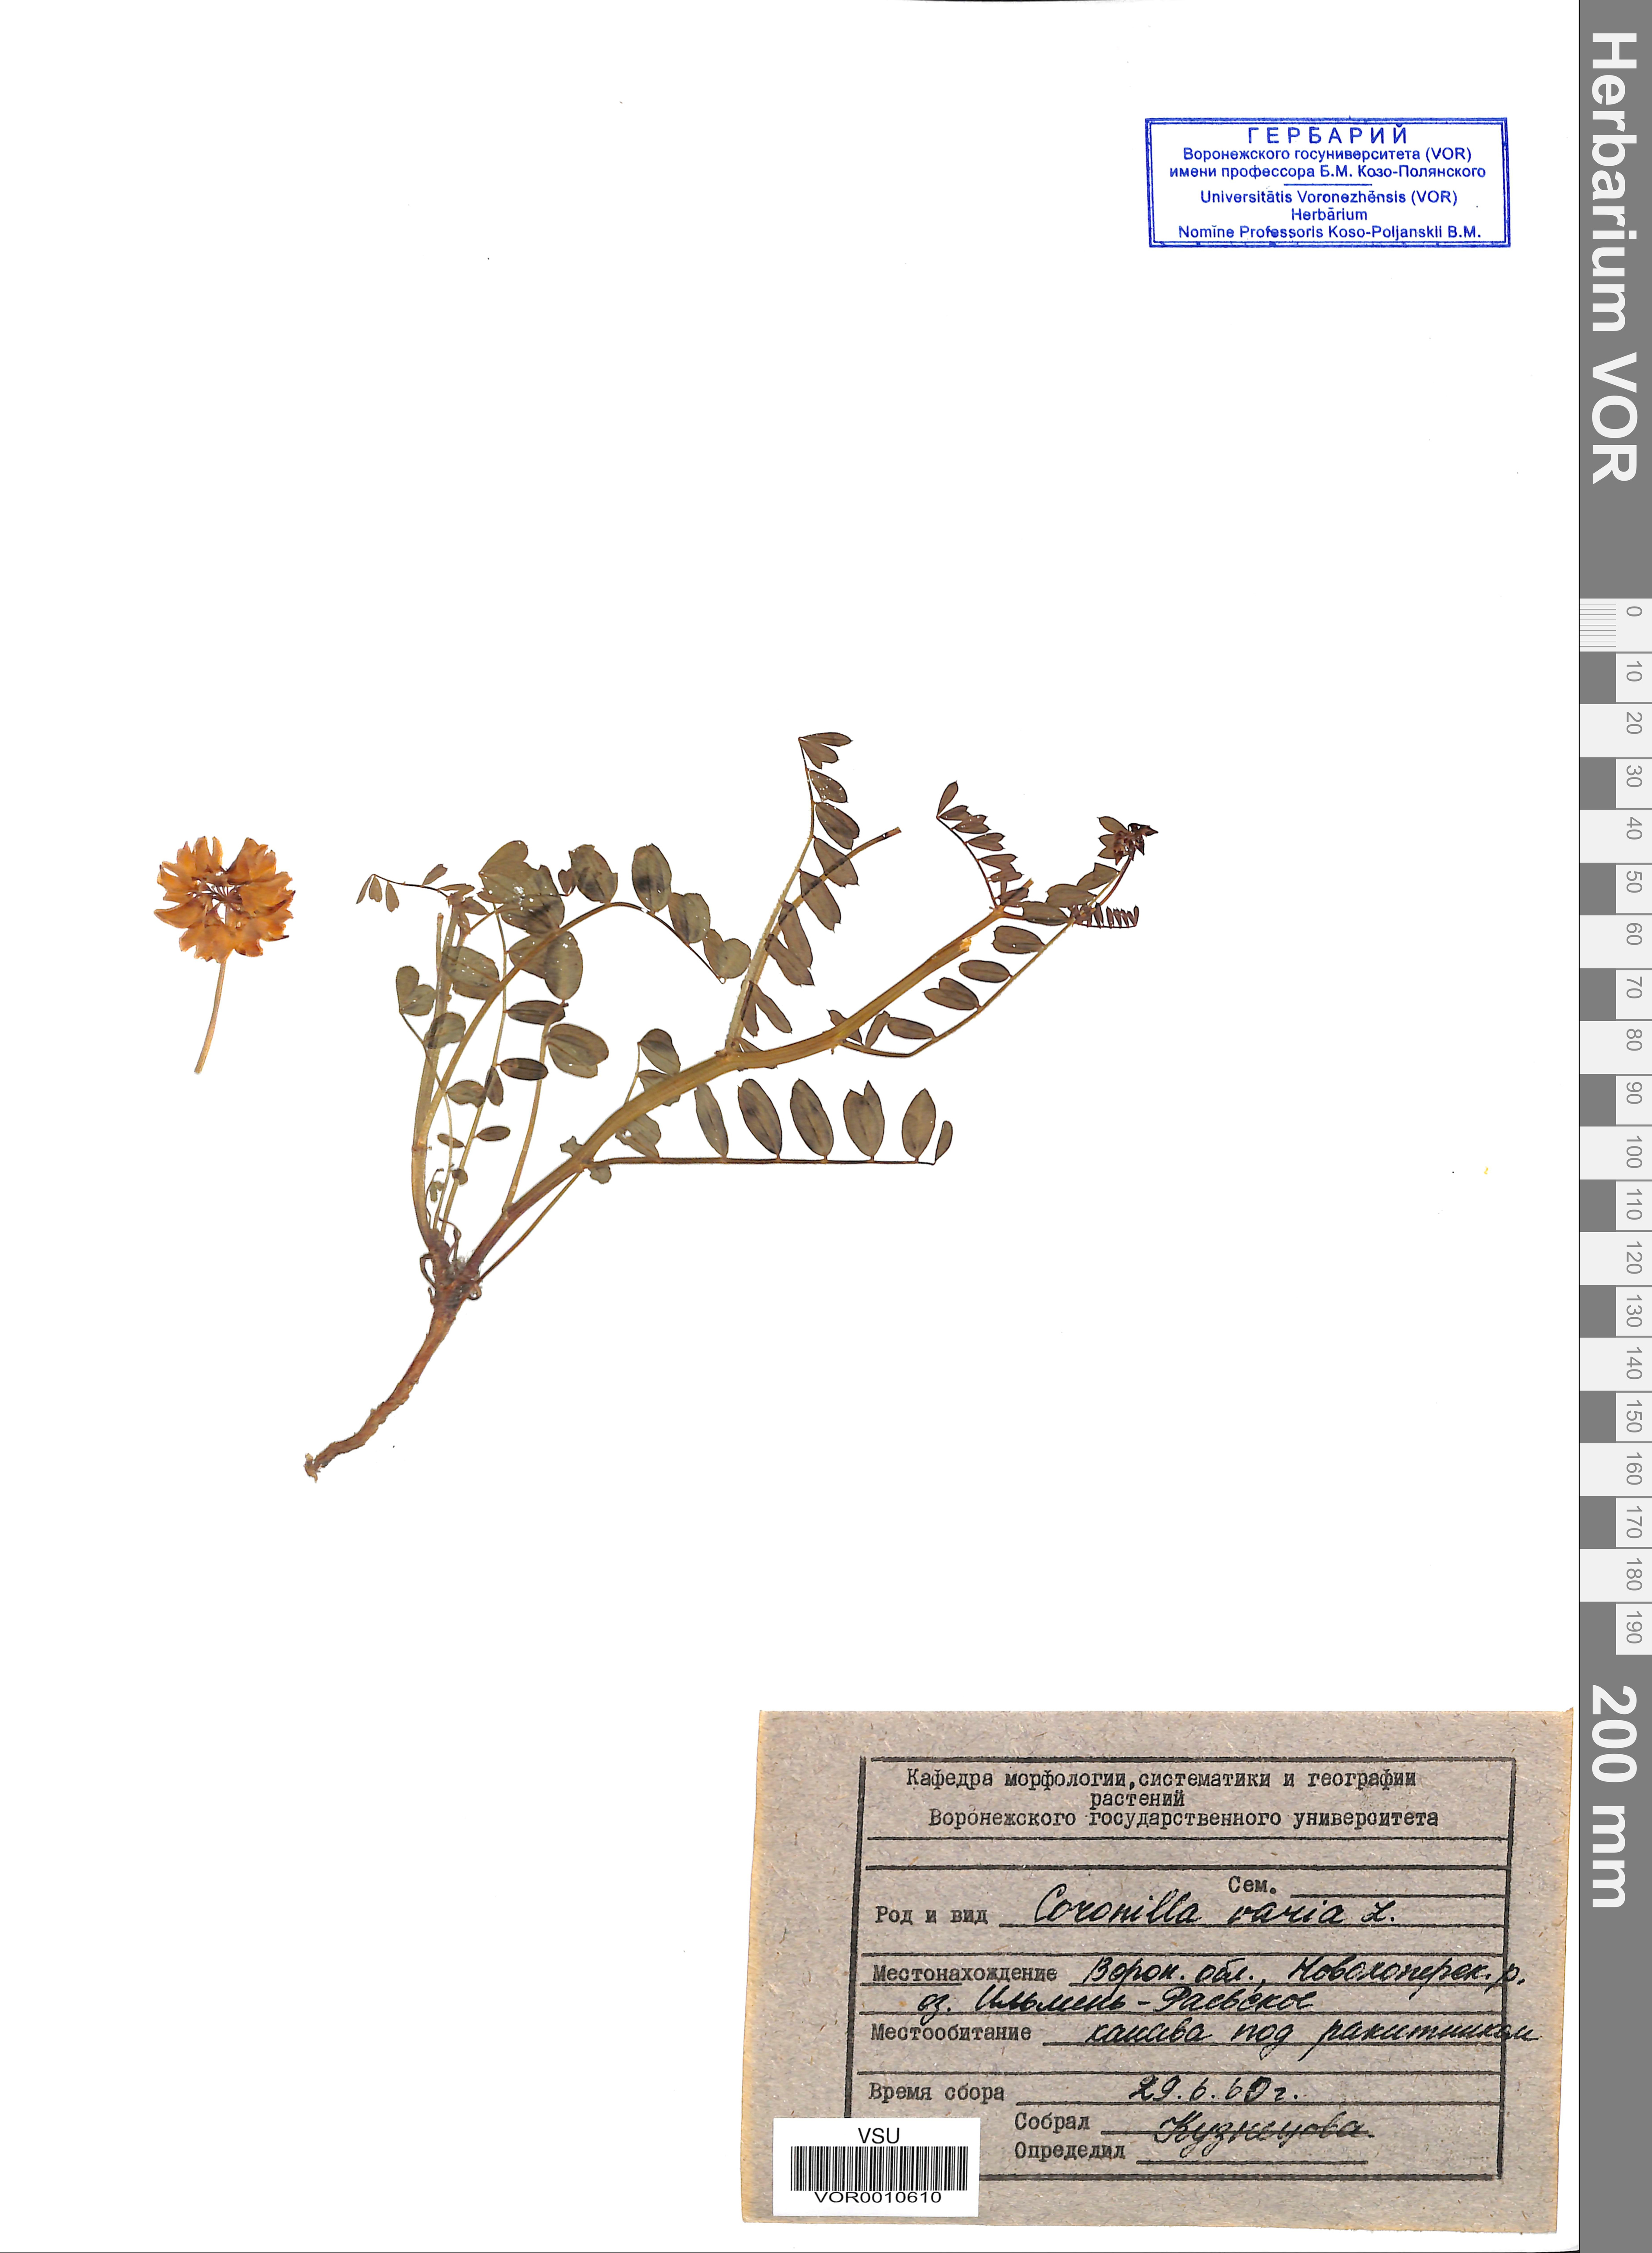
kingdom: Plantae
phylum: Tracheophyta
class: Magnoliopsida
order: Fabales
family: Fabaceae
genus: Coronilla
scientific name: Coronilla varia
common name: Crownvetch
